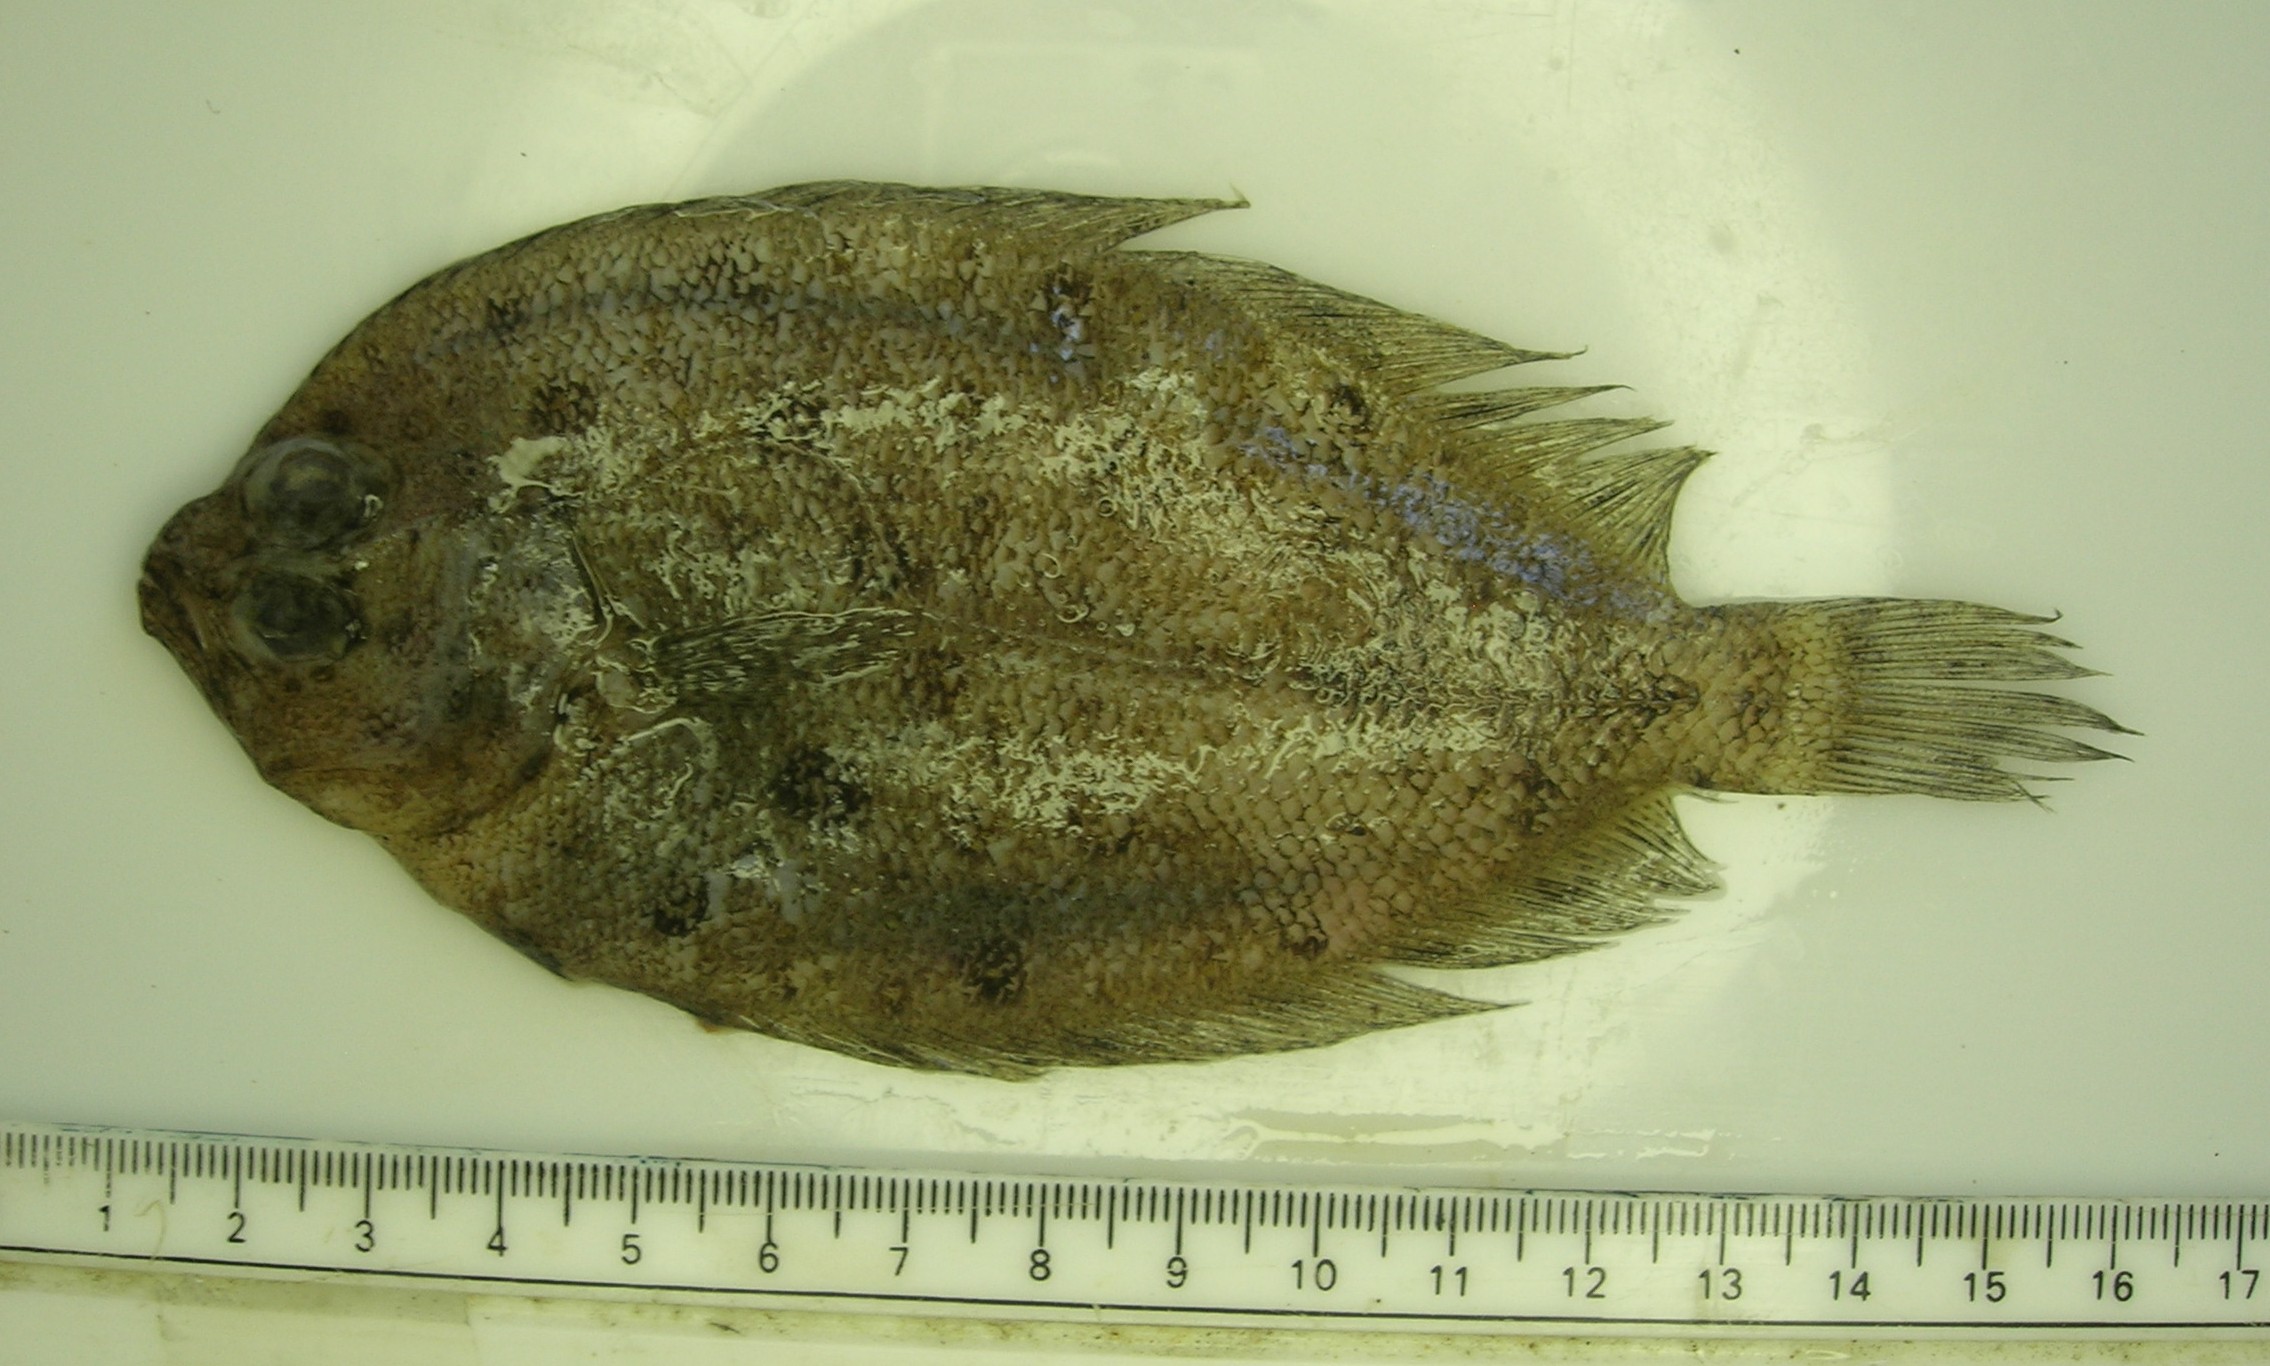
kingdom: Animalia
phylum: Chordata
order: Pleuronectiformes
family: Paralichthyidae
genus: Pseudorhombus
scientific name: Pseudorhombus natalensis
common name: Natal flounder
